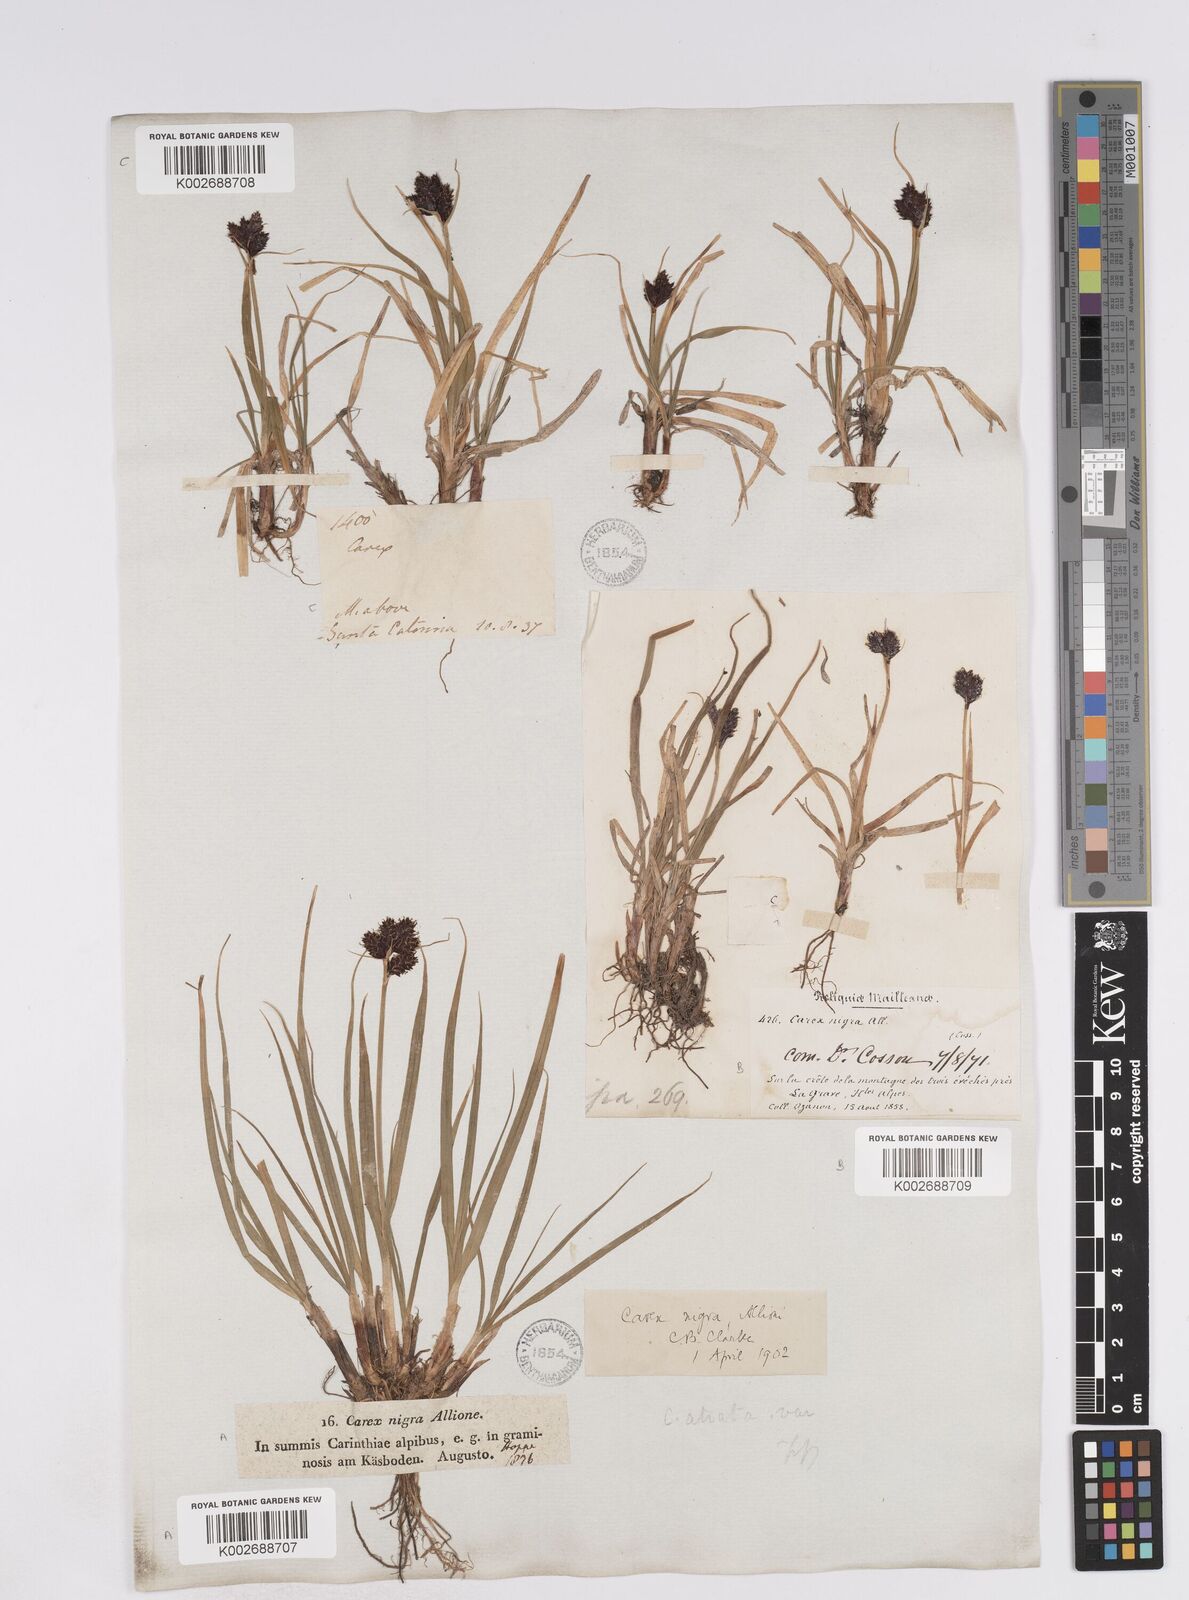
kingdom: Plantae
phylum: Tracheophyta
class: Liliopsida
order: Poales
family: Cyperaceae
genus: Carex
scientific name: Carex parviflora
